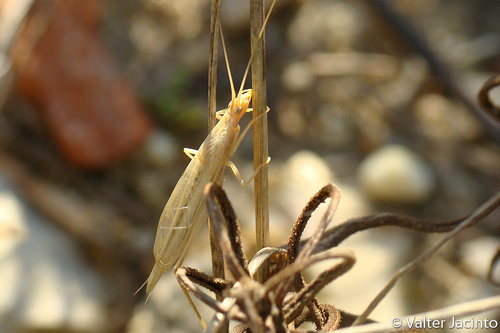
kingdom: Animalia
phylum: Arthropoda
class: Insecta
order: Orthoptera
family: Gryllidae
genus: Oecanthus
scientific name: Oecanthus dulcisonans
